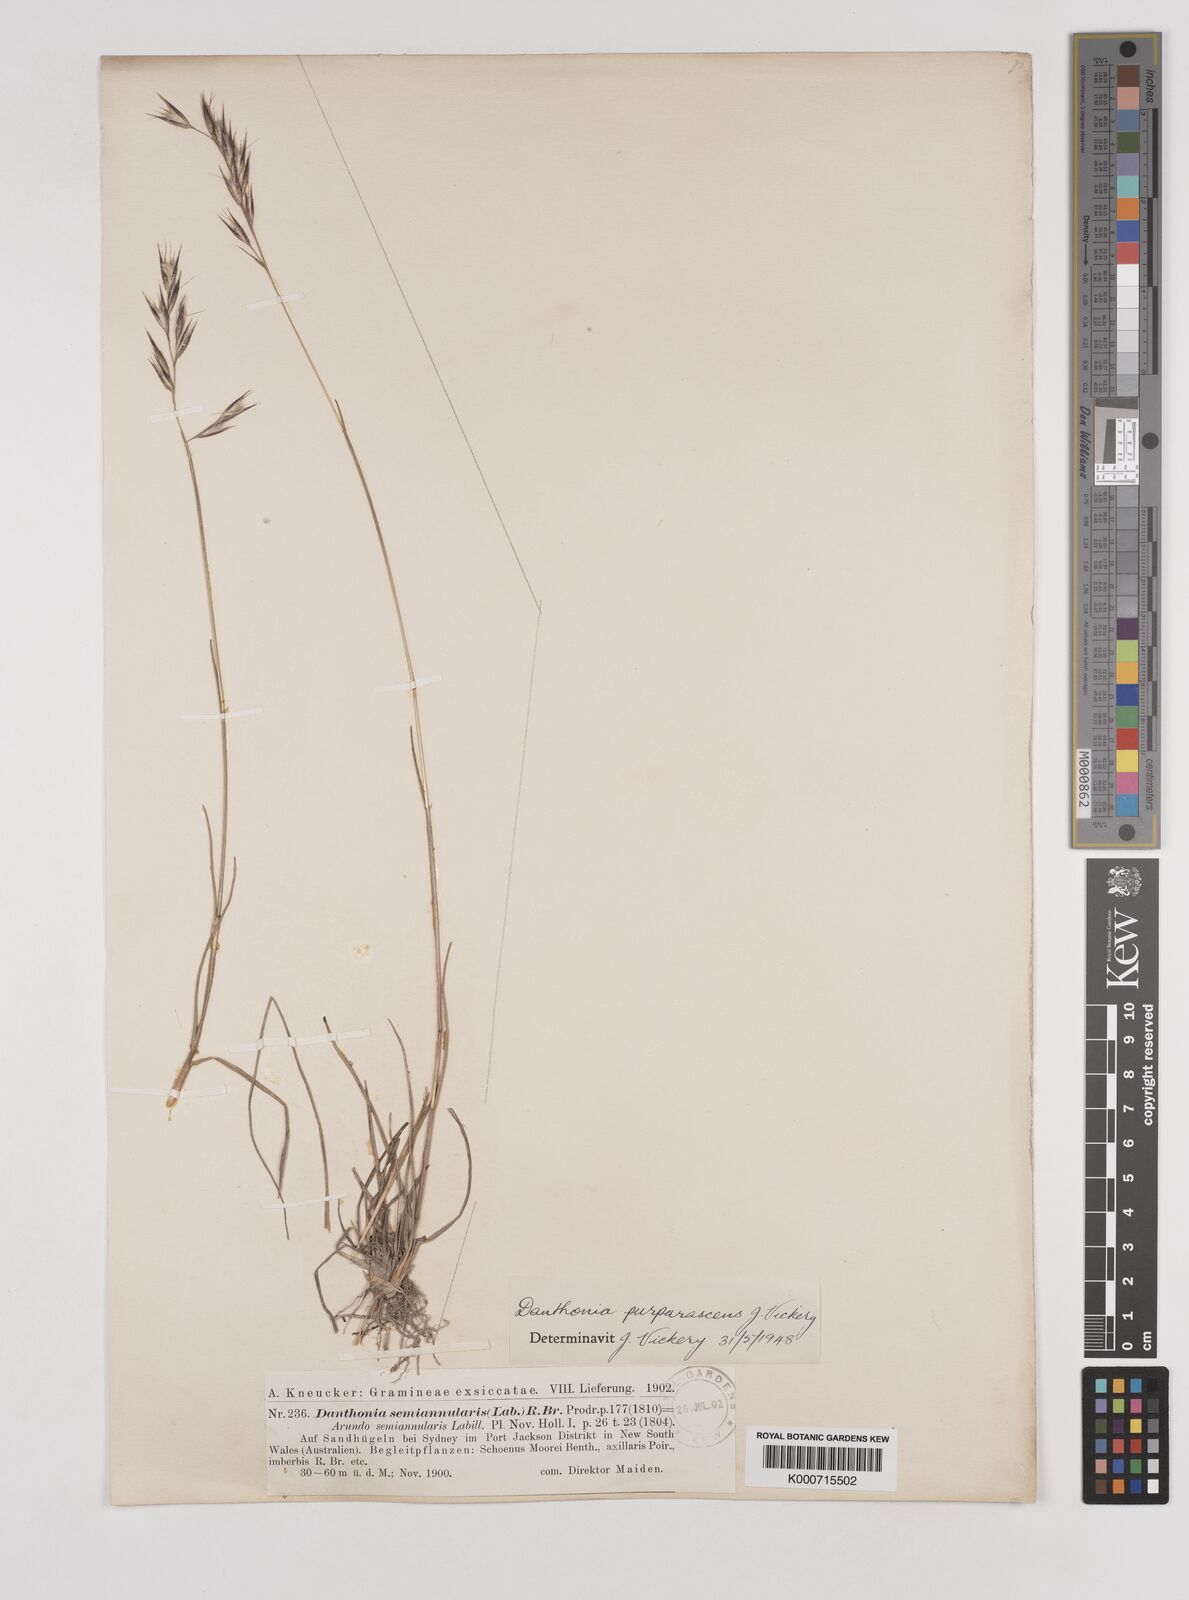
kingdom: Plantae
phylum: Tracheophyta
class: Liliopsida
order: Poales
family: Poaceae
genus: Rytidosperma
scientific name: Rytidosperma tenuius
